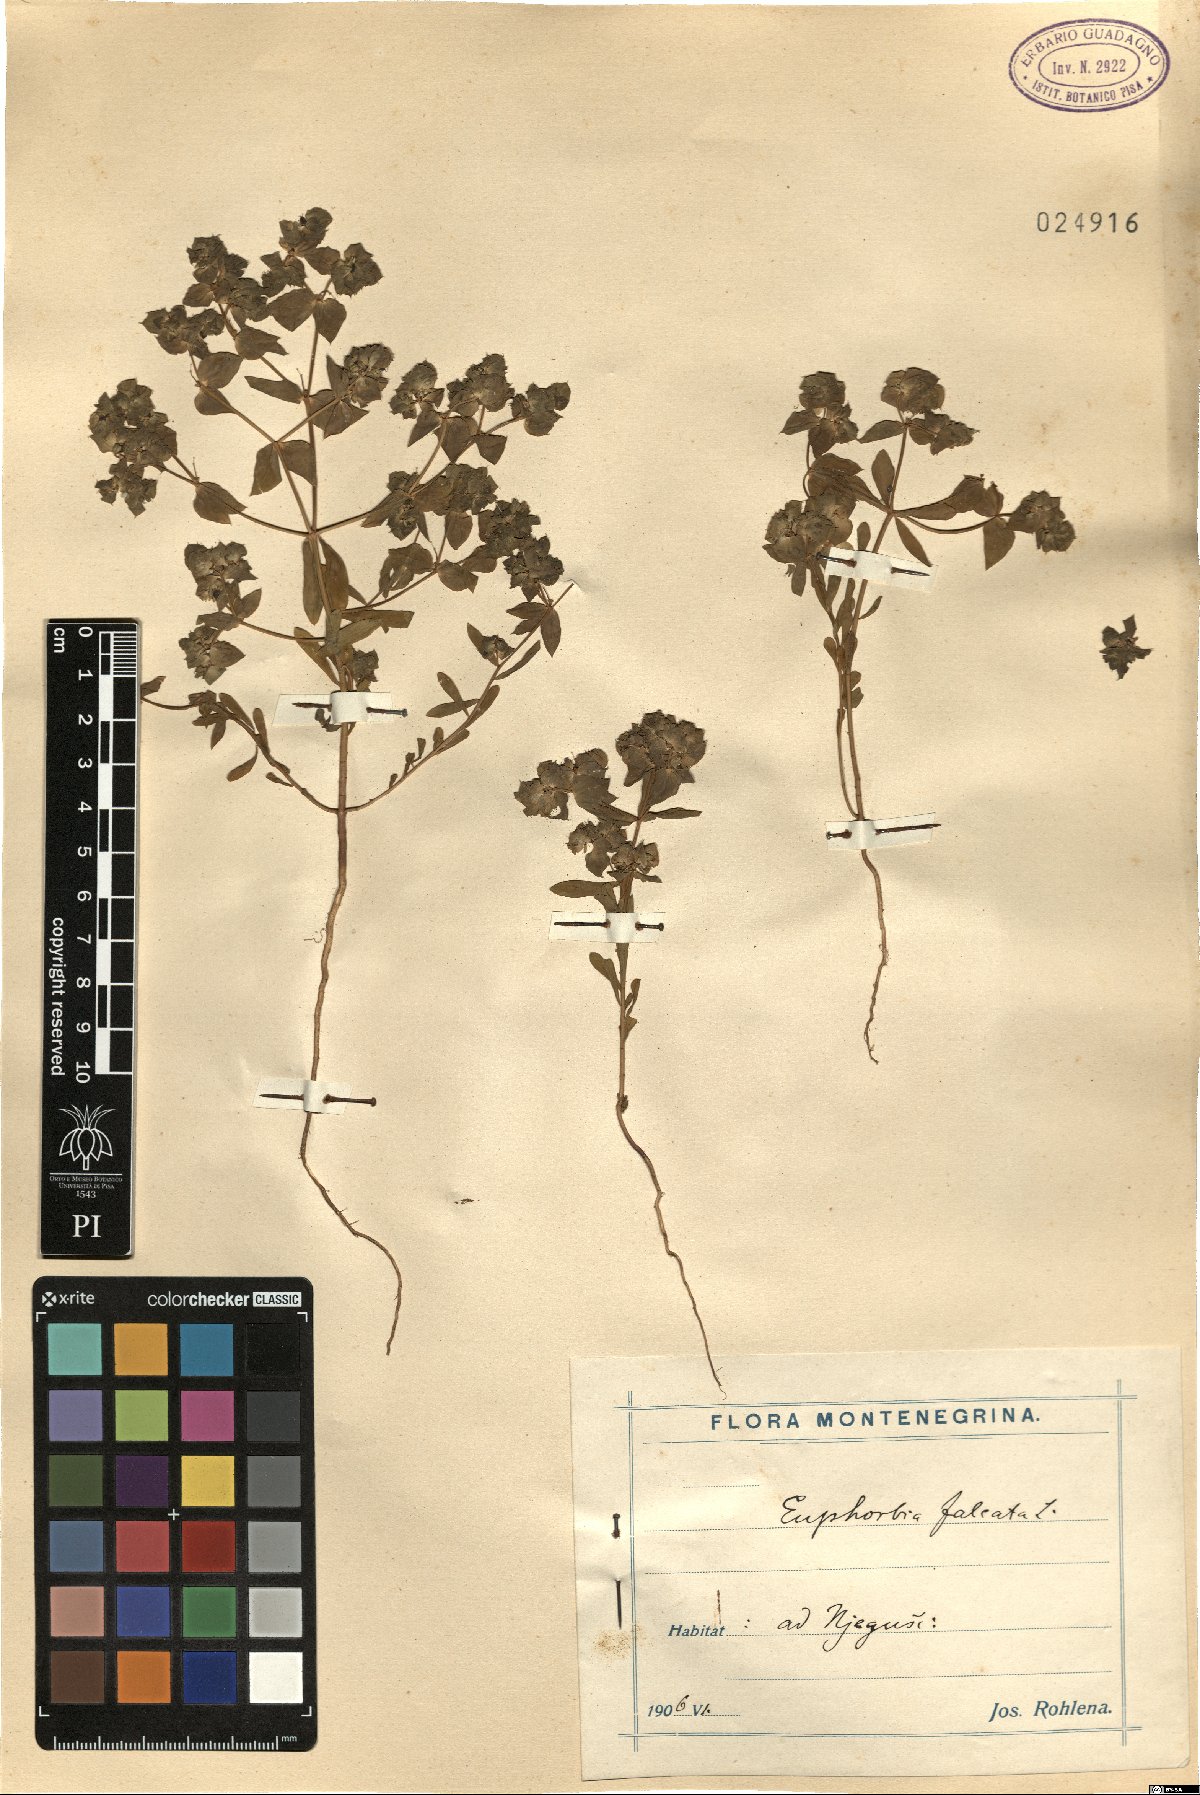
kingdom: Plantae
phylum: Tracheophyta
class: Magnoliopsida
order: Malpighiales
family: Euphorbiaceae
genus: Euphorbia
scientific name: Euphorbia falcata
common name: Sickle spurge
